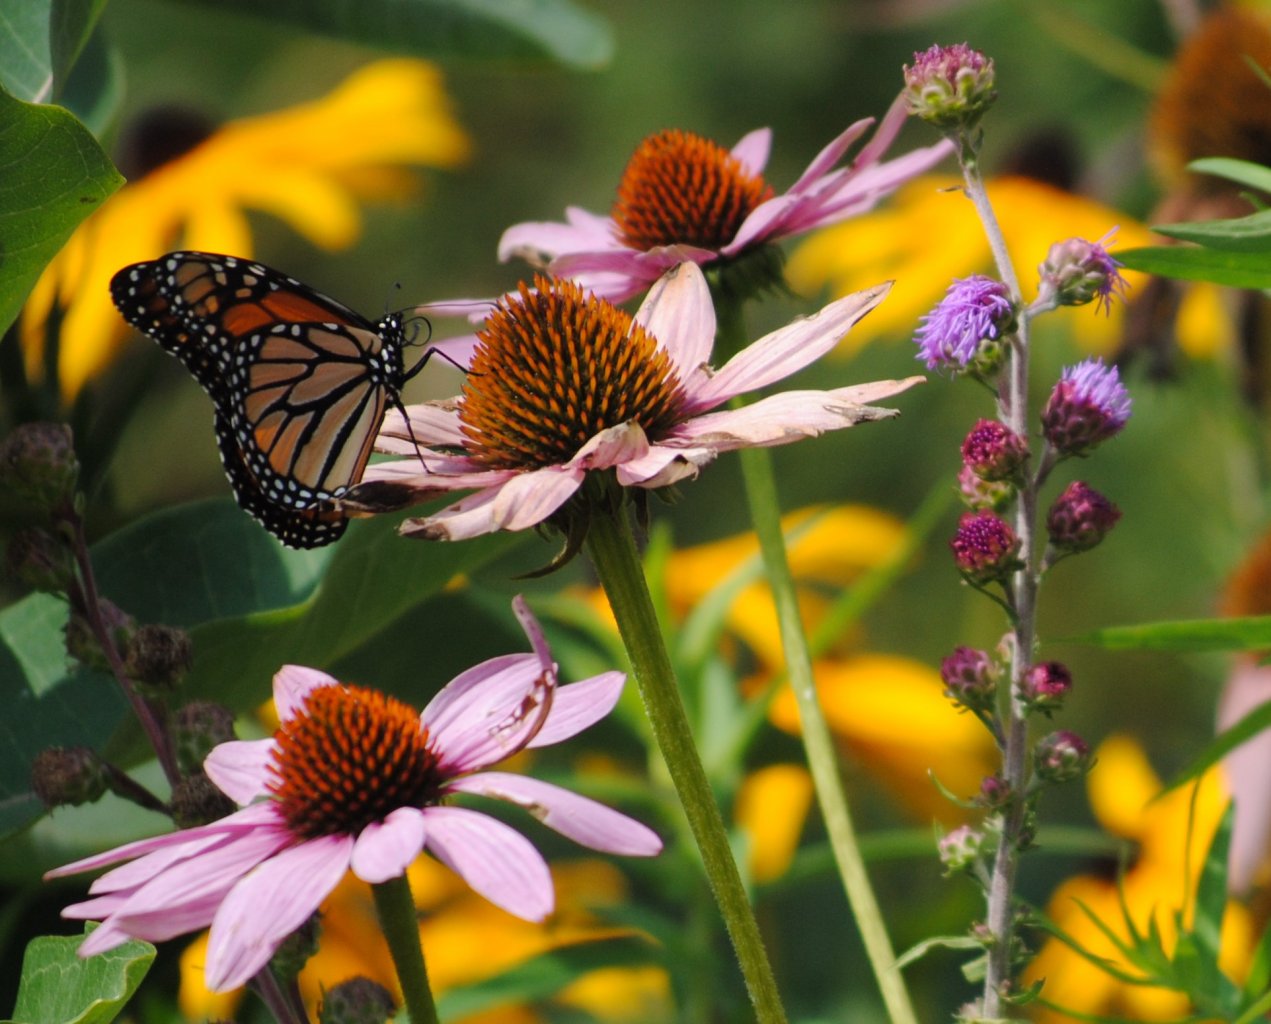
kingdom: Animalia
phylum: Arthropoda
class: Insecta
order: Lepidoptera
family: Nymphalidae
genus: Danaus
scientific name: Danaus plexippus
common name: Monarch
